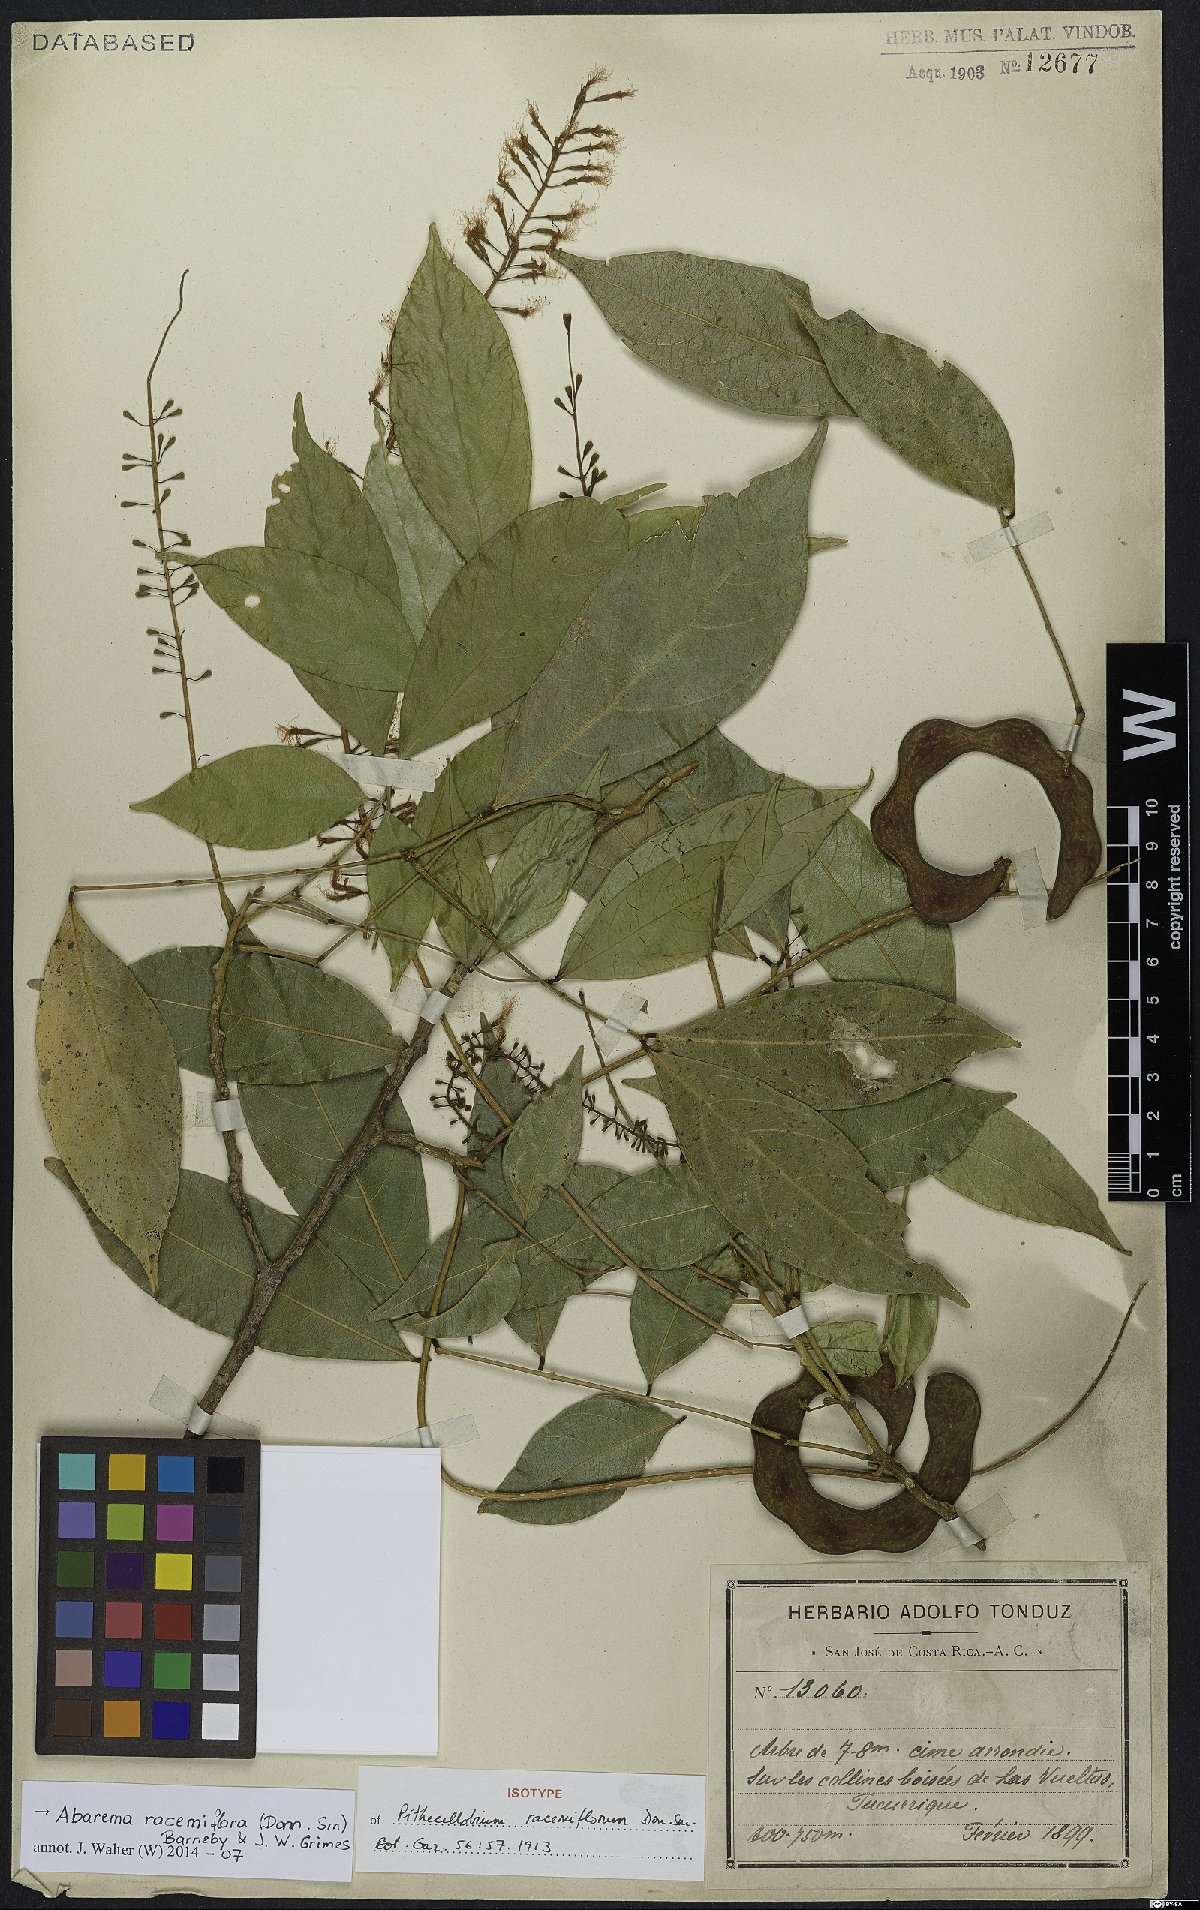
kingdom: Plantae
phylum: Tracheophyta
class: Magnoliopsida
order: Fabales
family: Fabaceae
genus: Punjuba
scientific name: Punjuba racemiflora
